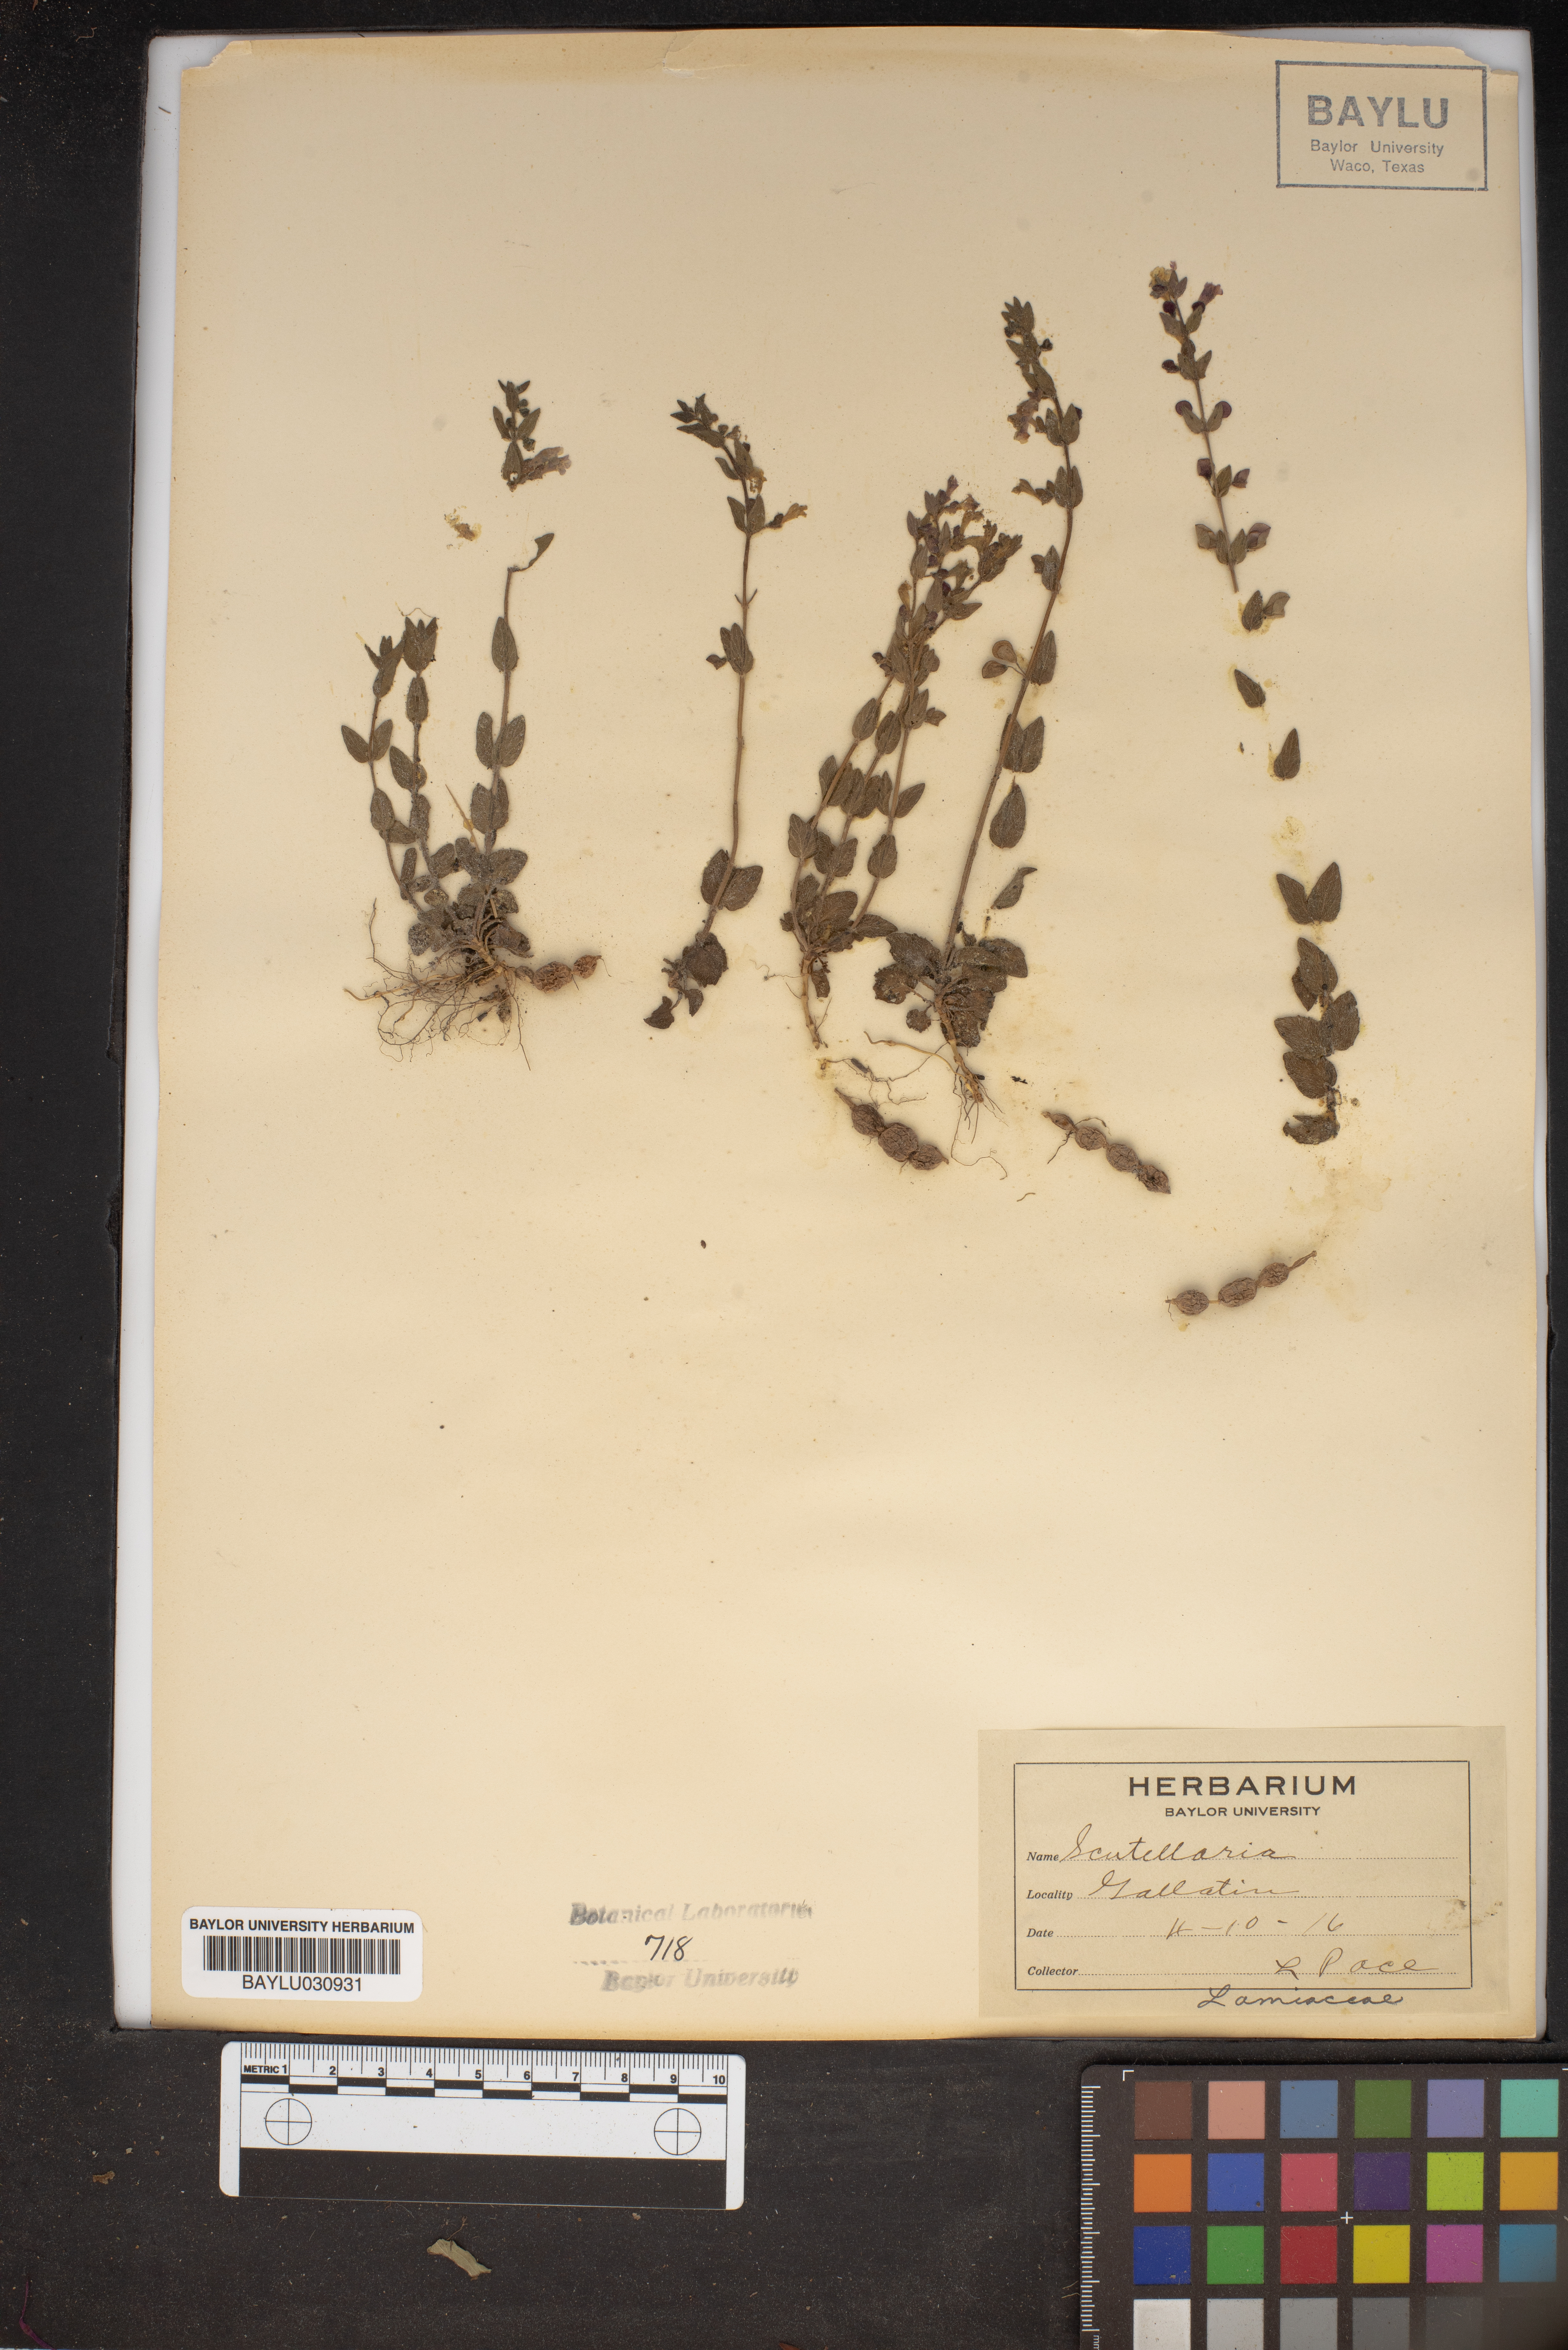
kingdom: Plantae
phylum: Tracheophyta
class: Magnoliopsida
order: Lamiales
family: Lamiaceae
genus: Scutellaria
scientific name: Scutellaria
